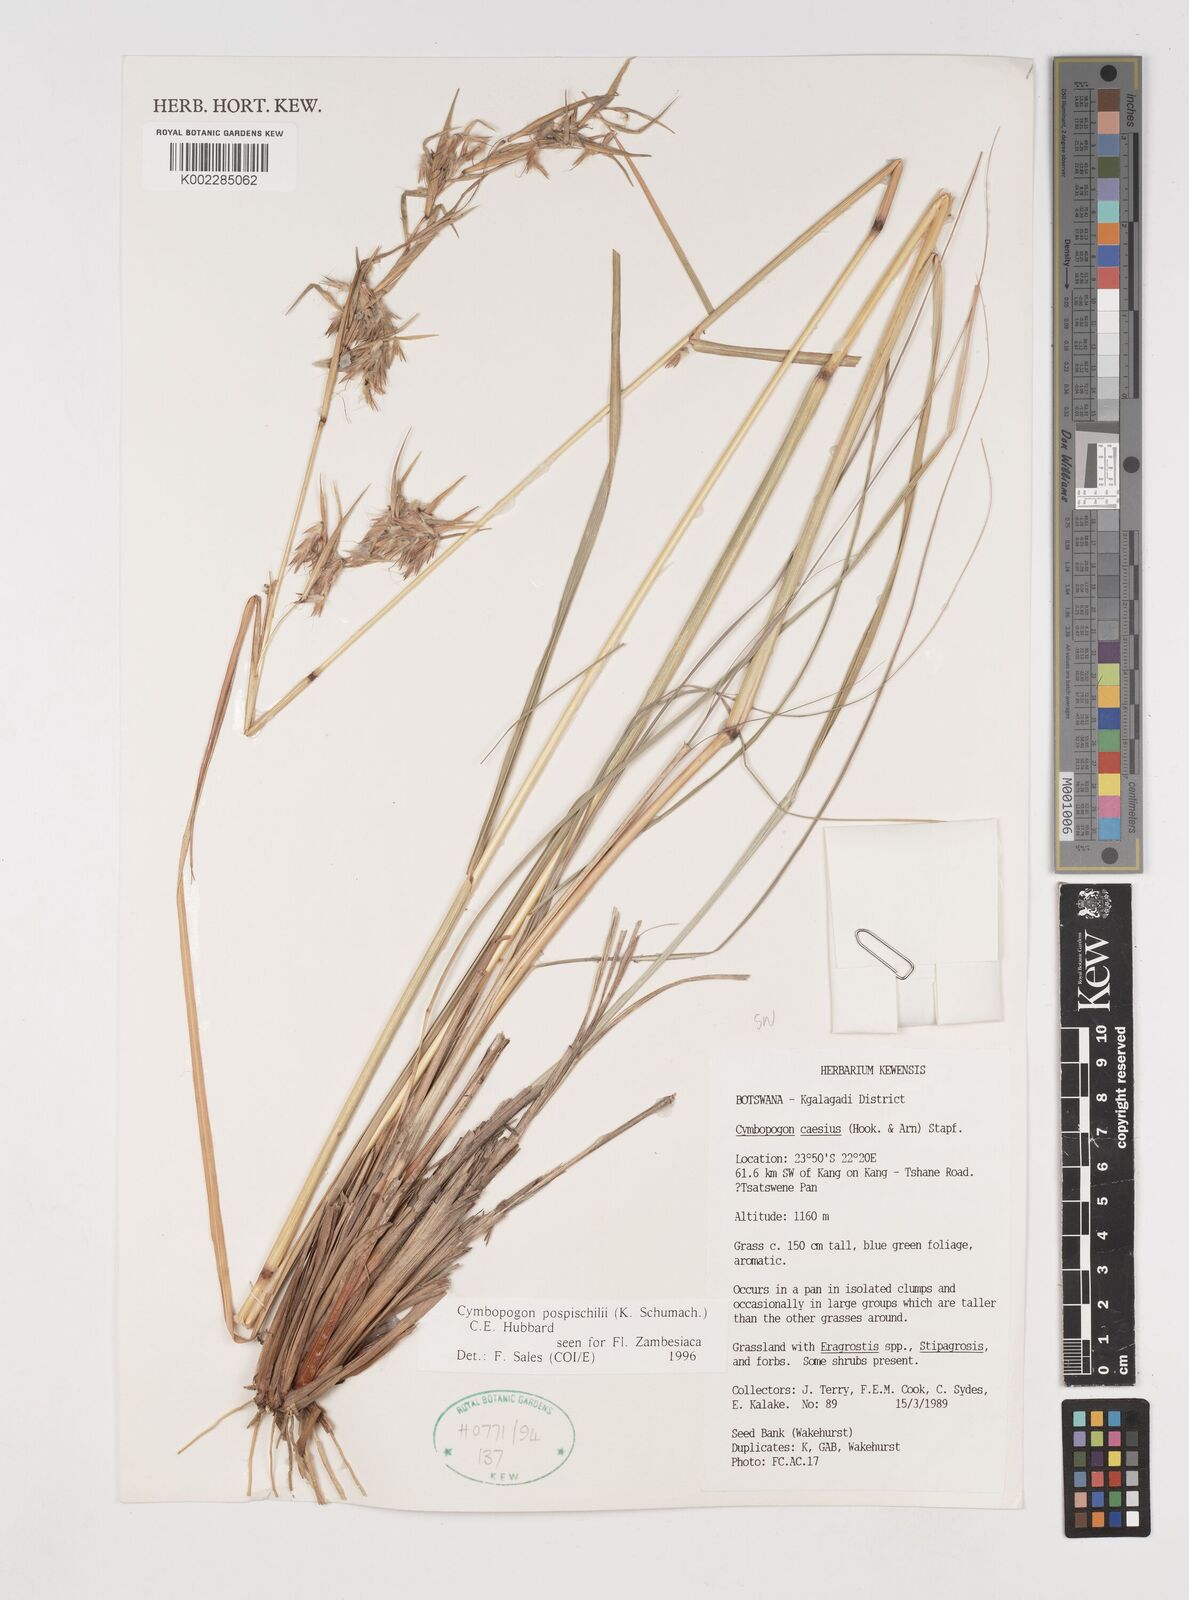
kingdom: Plantae
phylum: Tracheophyta
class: Liliopsida
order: Poales
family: Poaceae
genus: Cymbopogon
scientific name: Cymbopogon pospischilii
